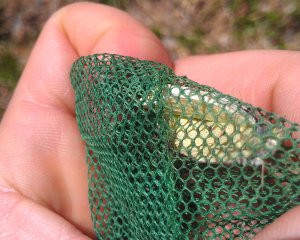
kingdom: Animalia
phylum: Arthropoda
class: Insecta
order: Lepidoptera
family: Pieridae
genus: Pieris
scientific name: Pieris rapae
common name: Cabbage White
